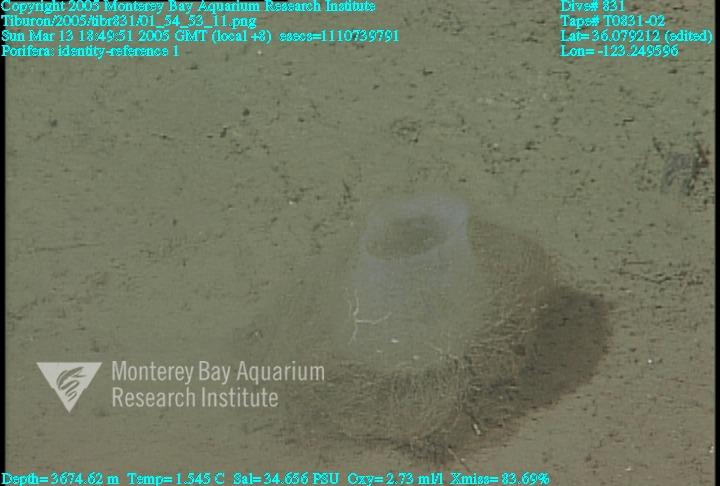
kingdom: Animalia
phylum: Porifera
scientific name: Porifera
